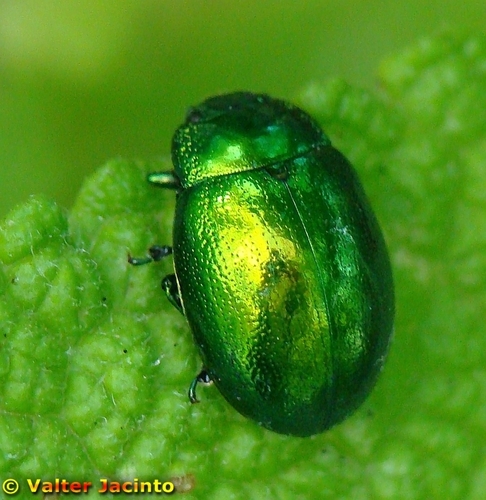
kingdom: Animalia
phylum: Arthropoda
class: Insecta
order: Coleoptera
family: Chrysomelidae
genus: Chrysolina
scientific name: Chrysolina viridana
